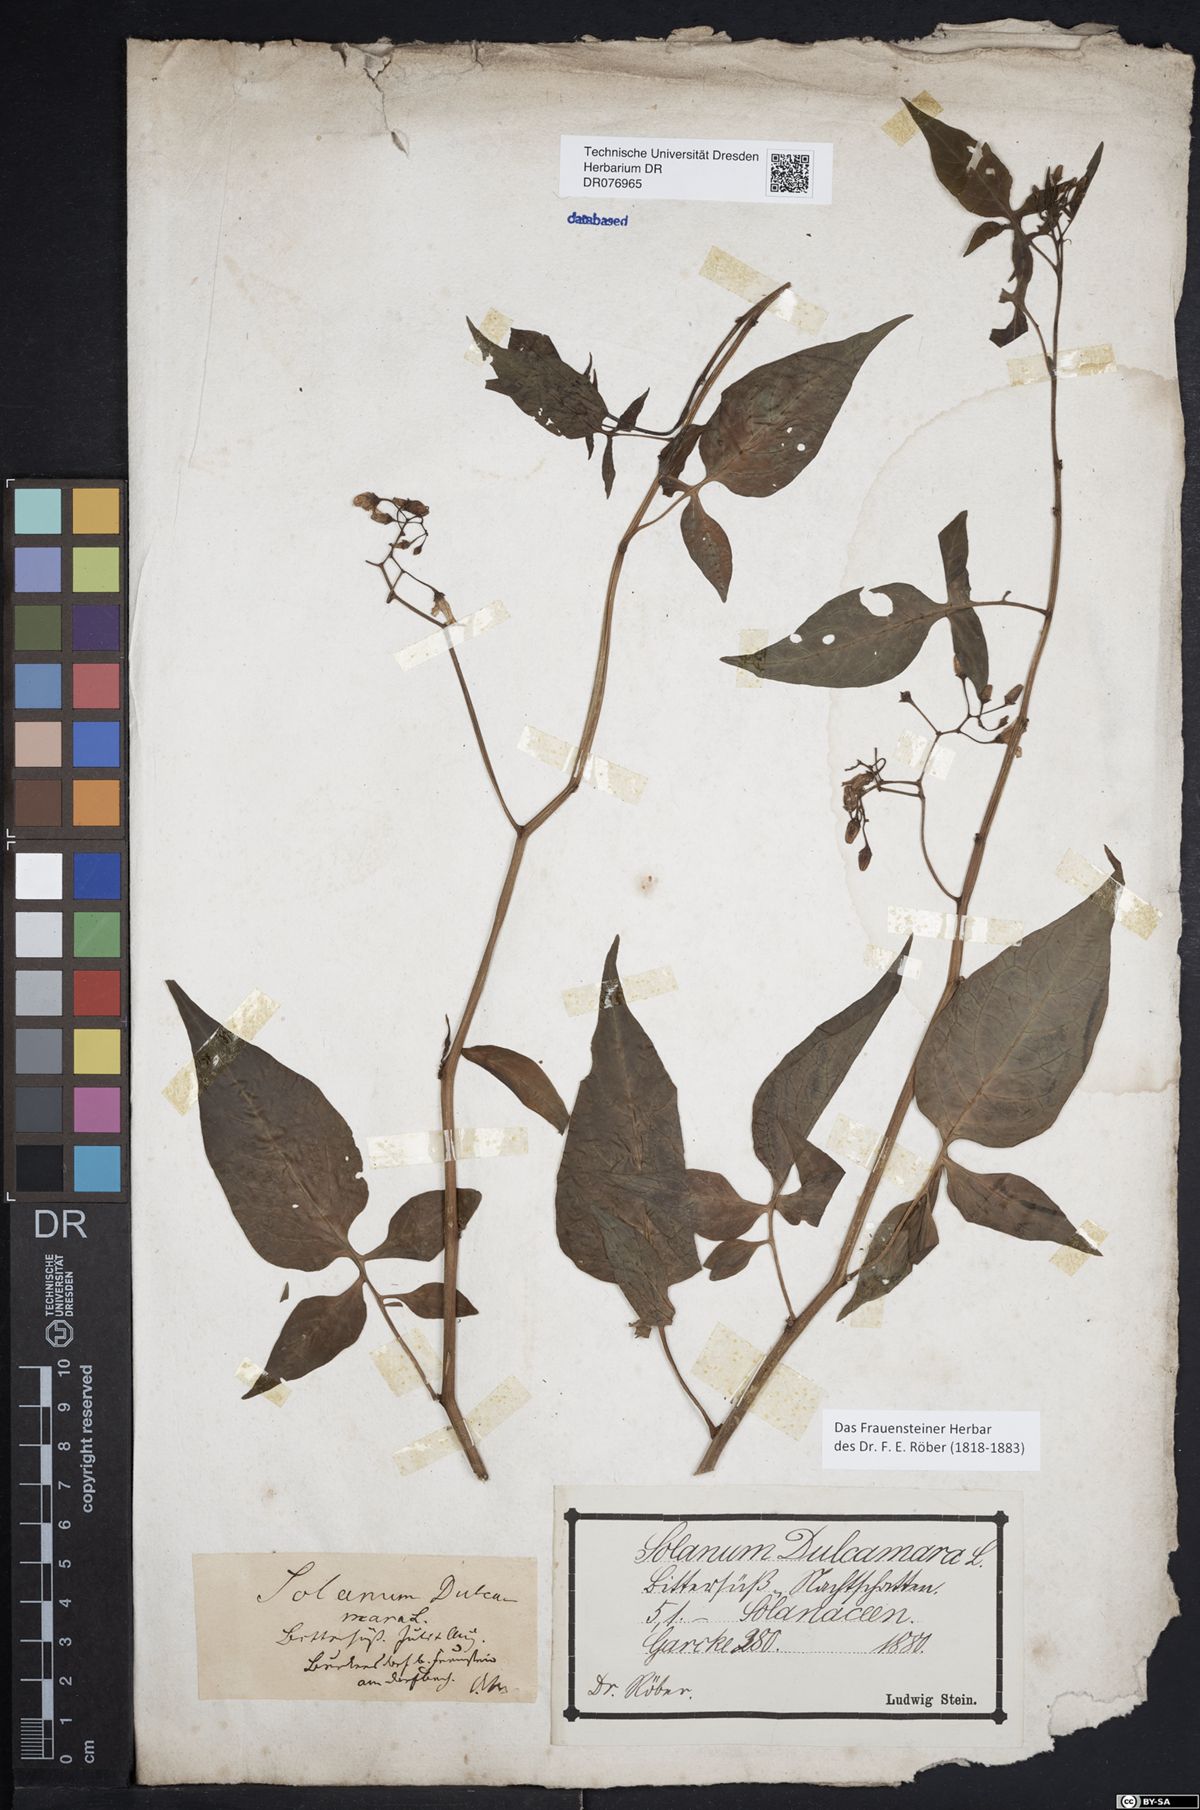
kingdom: Plantae
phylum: Tracheophyta
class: Magnoliopsida
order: Solanales
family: Solanaceae
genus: Solanum
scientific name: Solanum dulcamara
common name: Climbing nightshade
